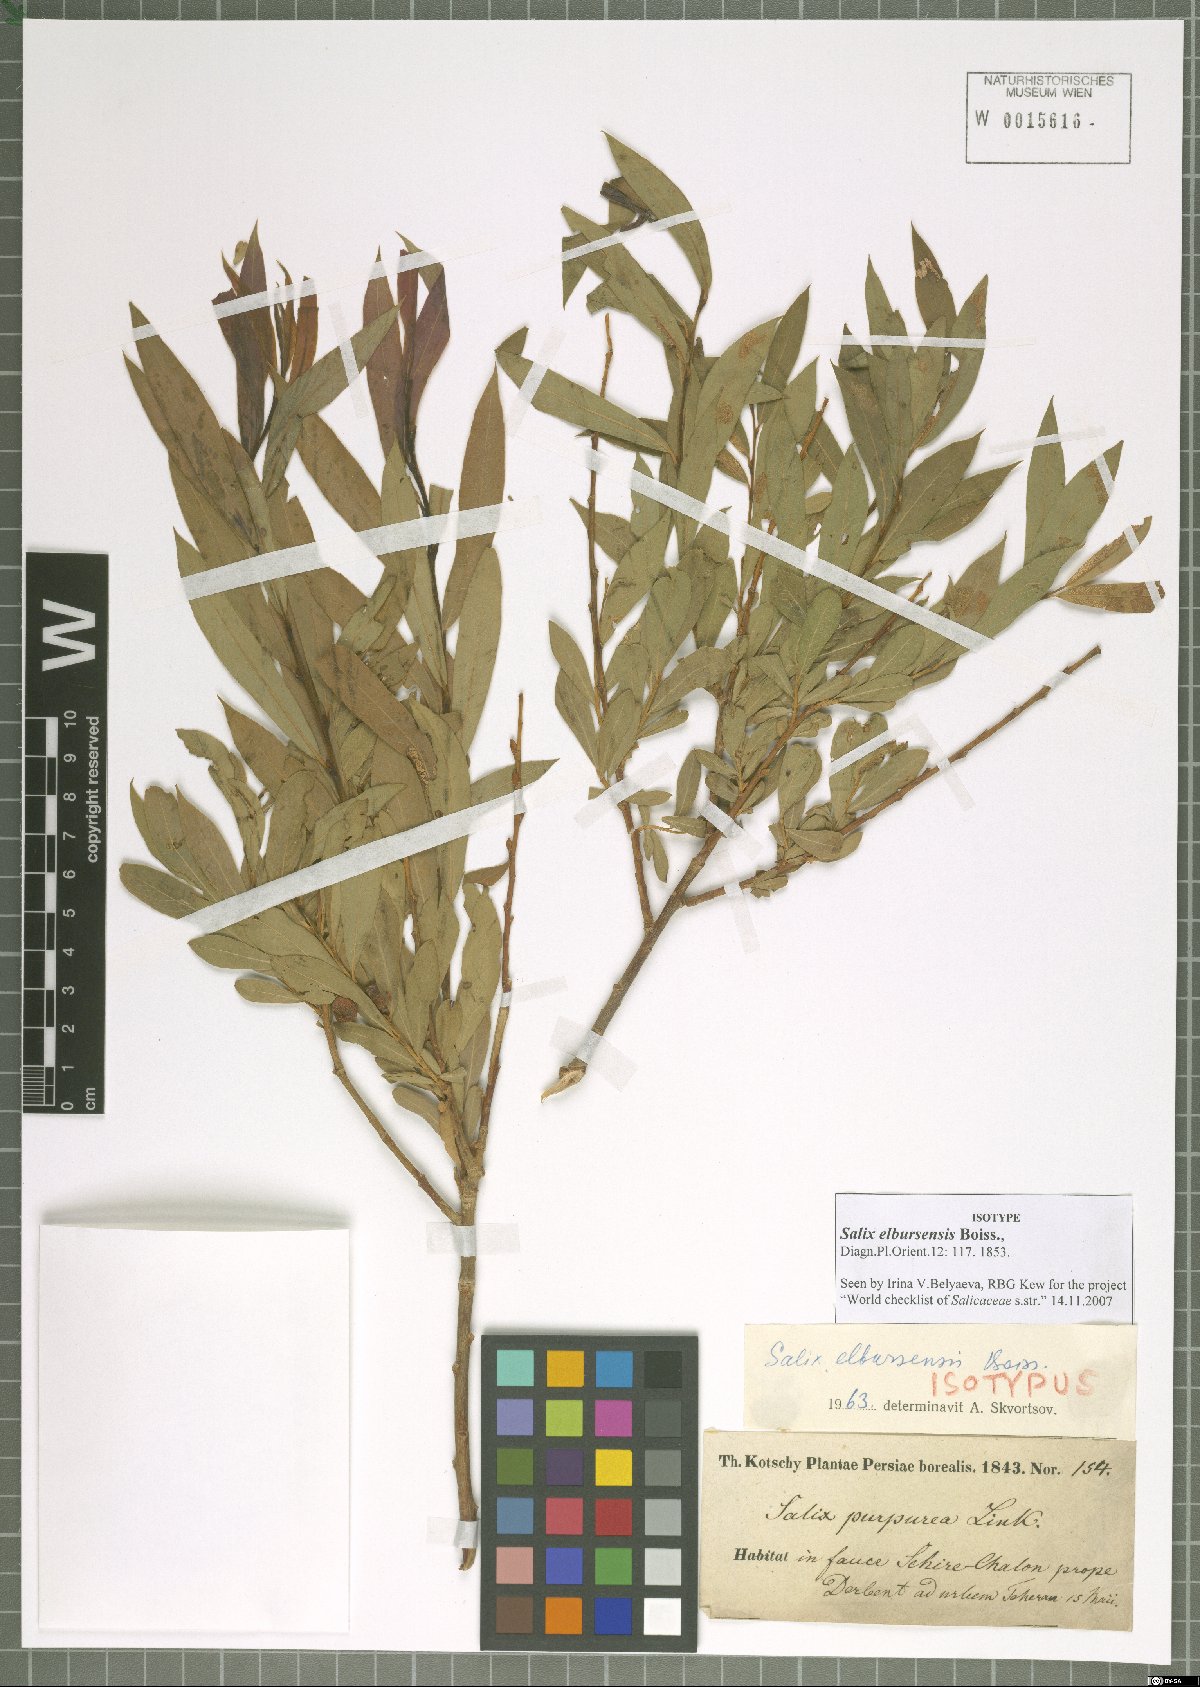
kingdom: Plantae
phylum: Tracheophyta
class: Magnoliopsida
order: Malpighiales
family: Salicaceae
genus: Salix
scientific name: Salix elbursensis
